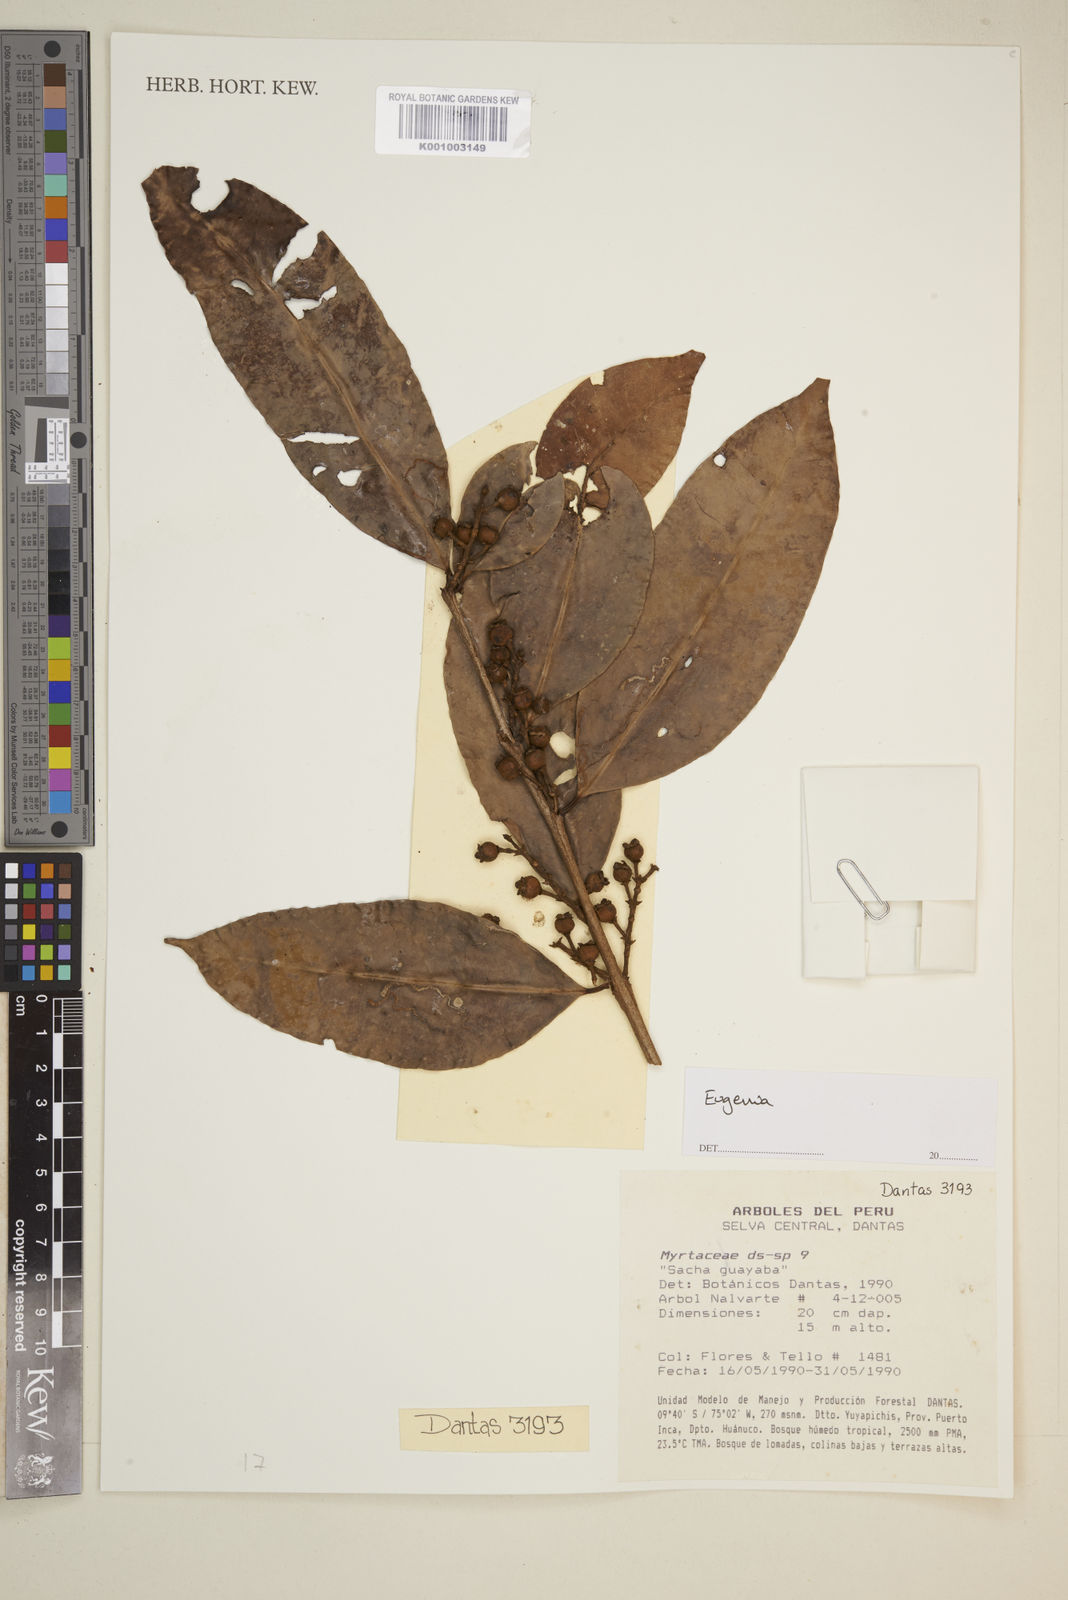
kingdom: Plantae
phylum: Tracheophyta
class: Magnoliopsida
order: Myrtales
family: Myrtaceae
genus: Eugenia
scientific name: Eugenia
